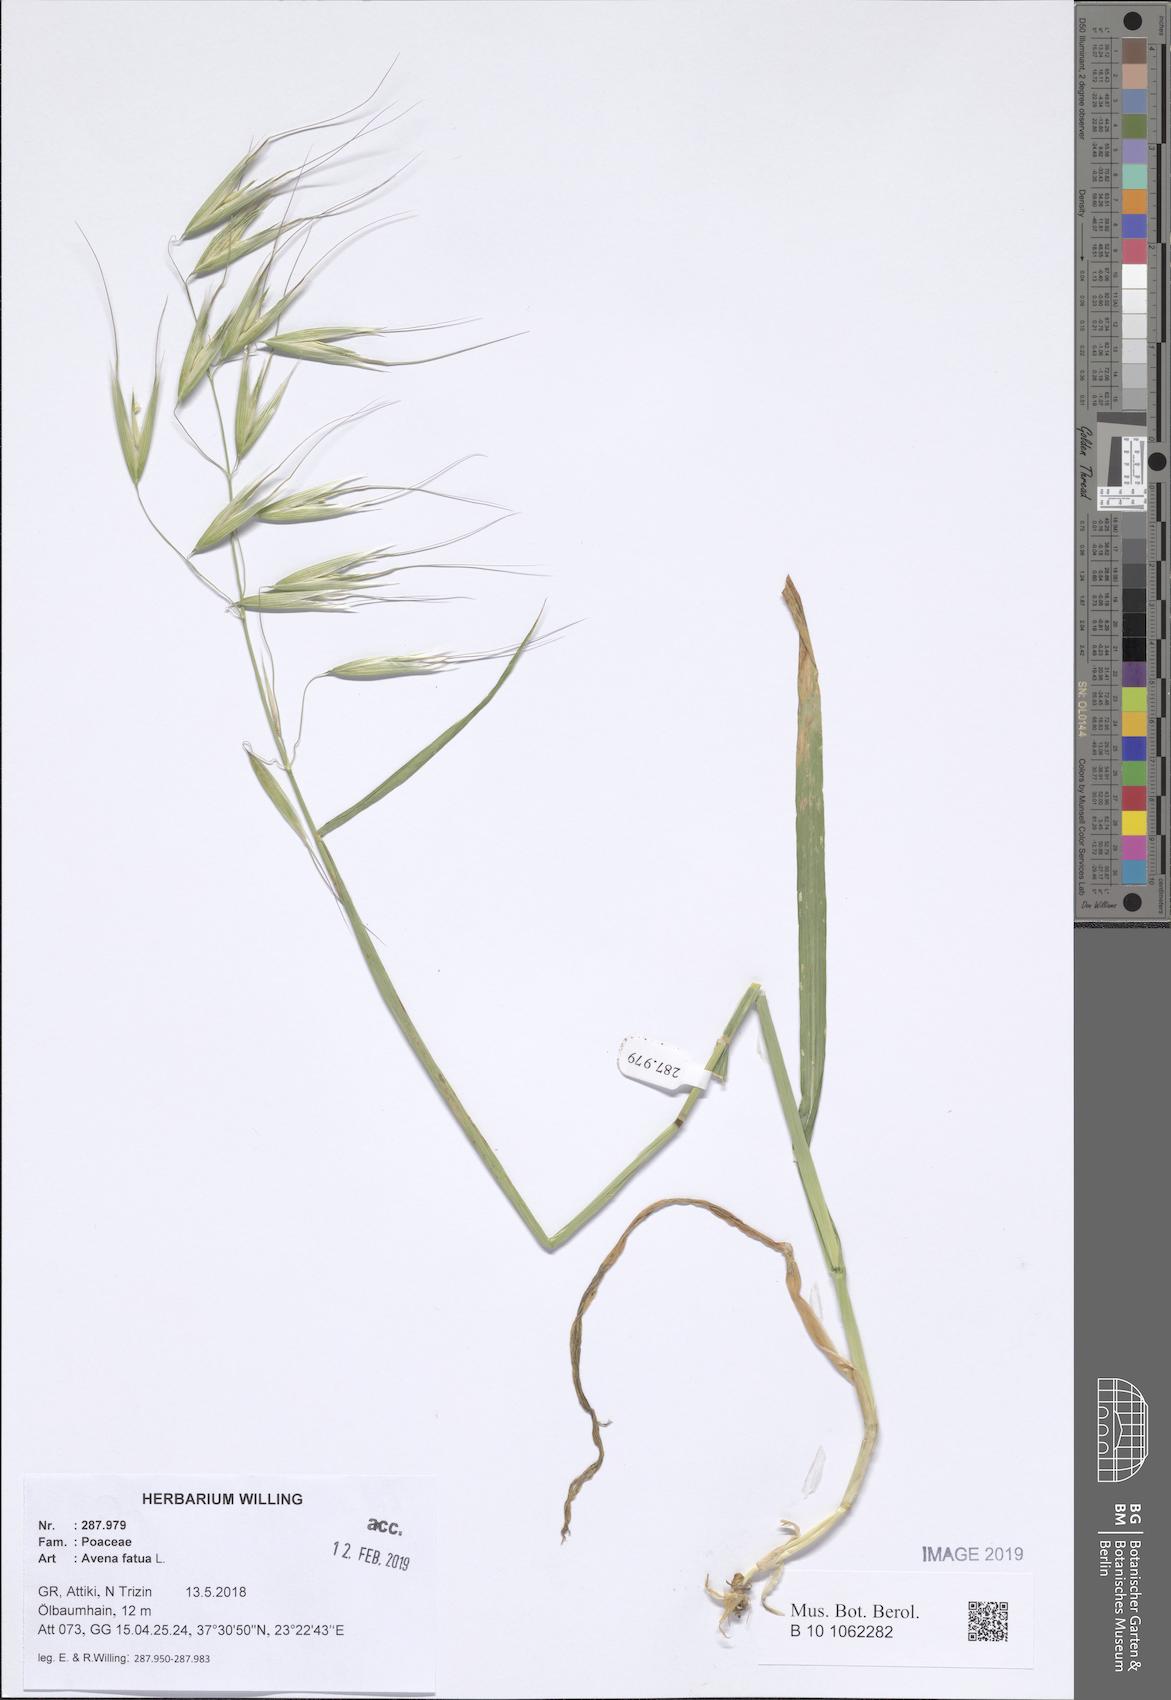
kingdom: Plantae
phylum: Tracheophyta
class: Liliopsida
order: Poales
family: Poaceae
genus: Avena
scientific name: Avena fatua
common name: Wild oat
